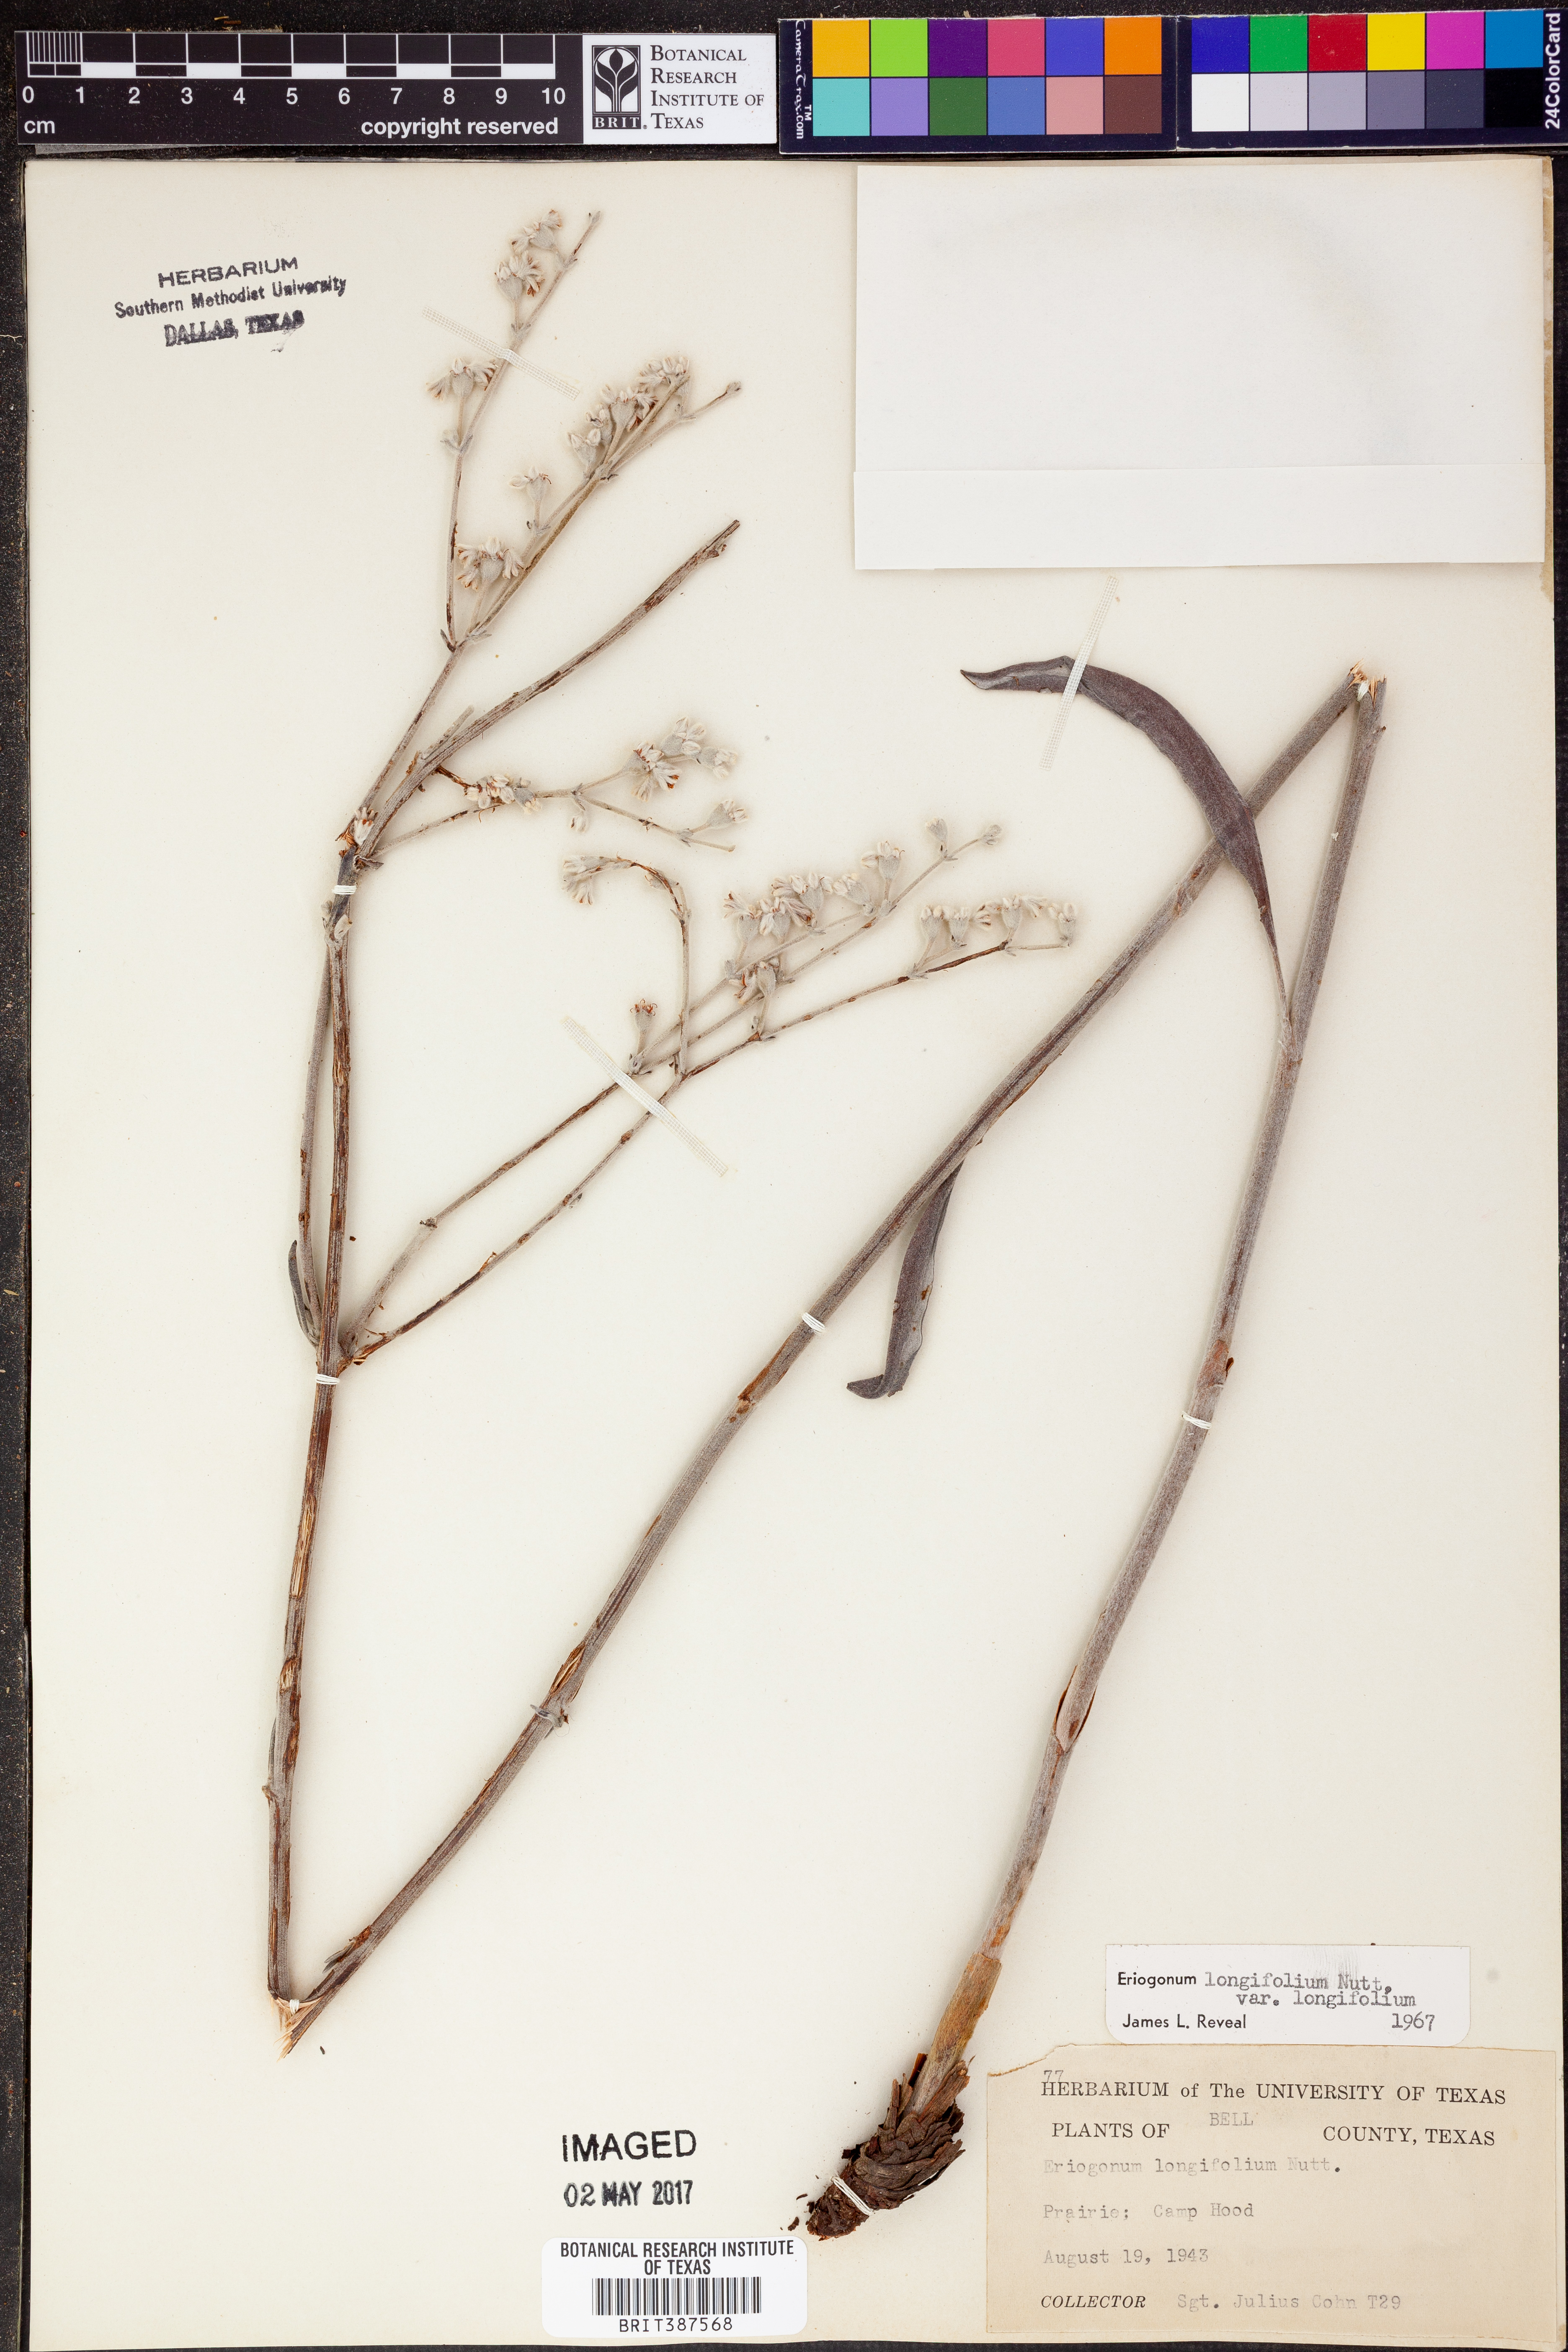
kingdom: Plantae
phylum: Tracheophyta
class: Magnoliopsida
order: Caryophyllales
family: Polygonaceae
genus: Eriogonum
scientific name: Eriogonum longifolium
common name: Longleaf wild buckwheat
